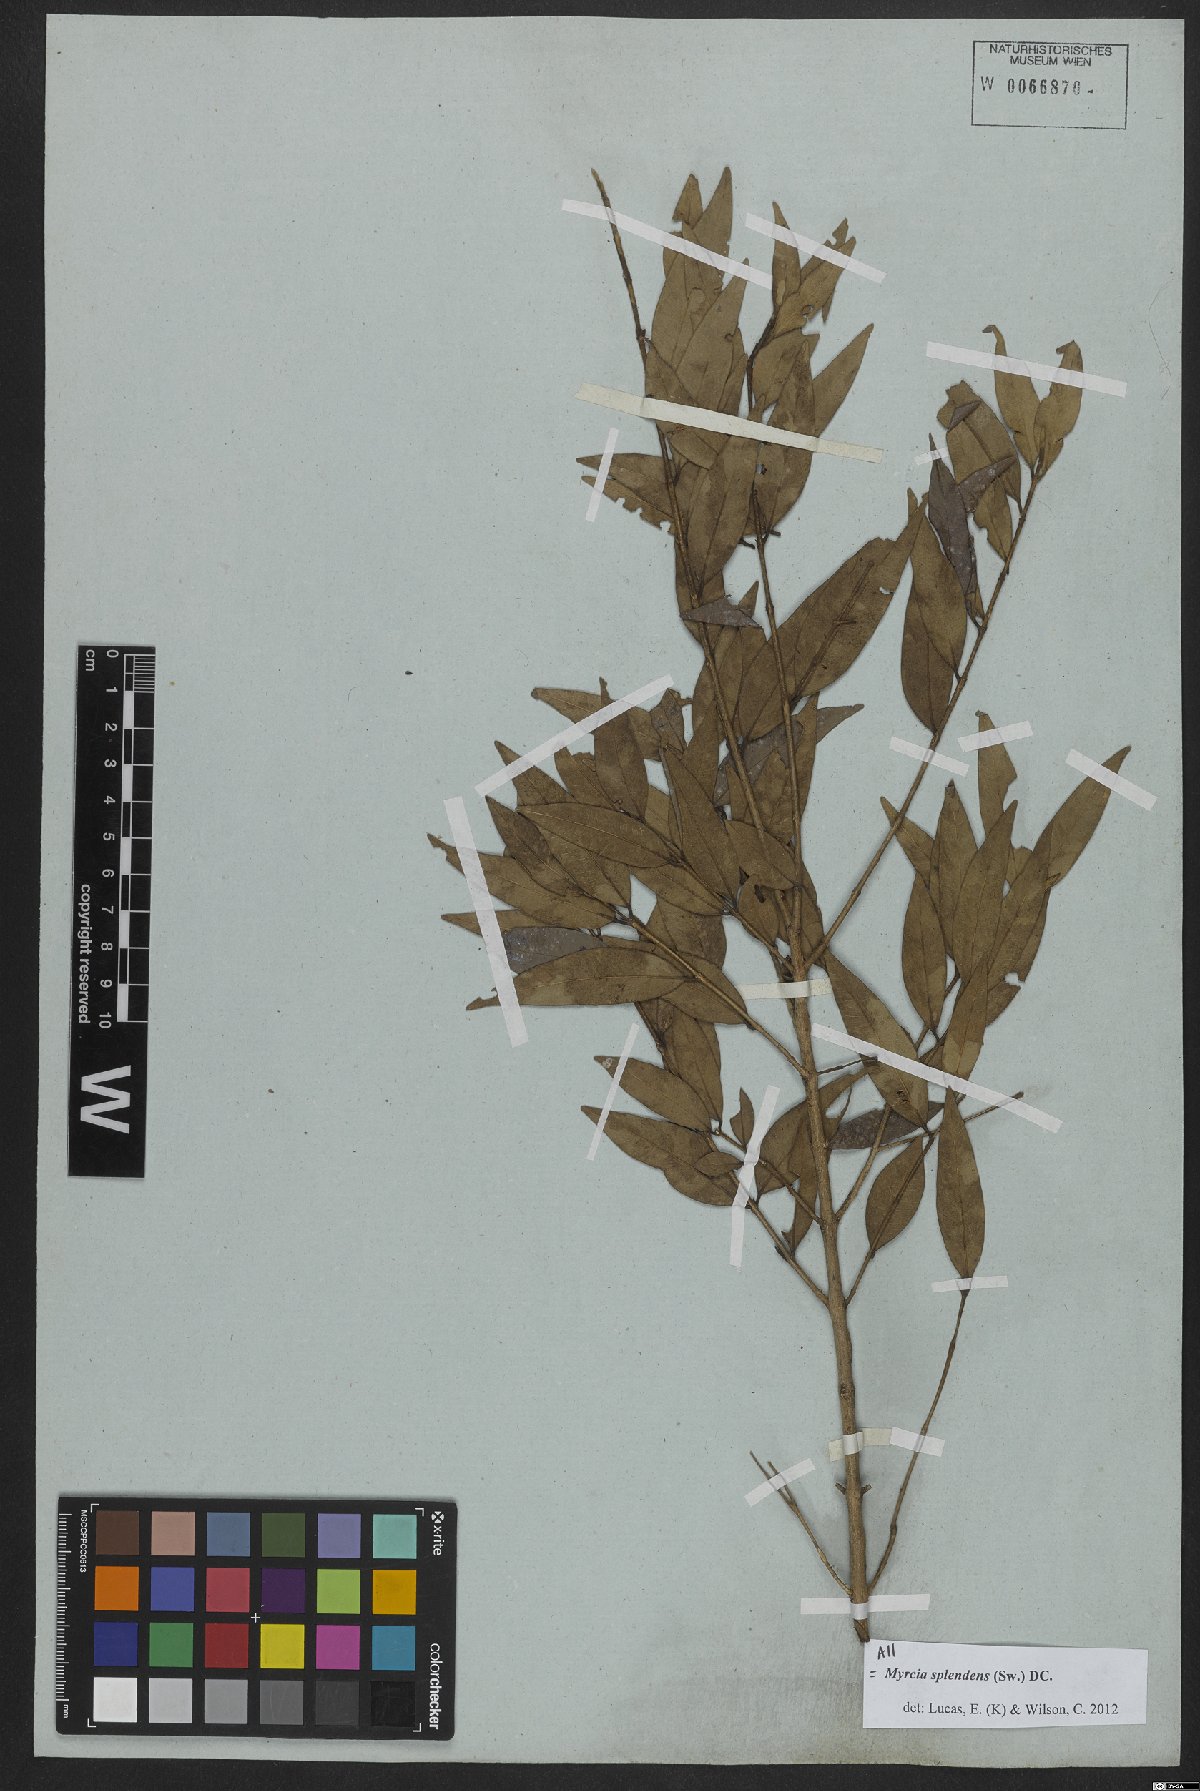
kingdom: Plantae
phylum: Tracheophyta
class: Magnoliopsida
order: Myrtales
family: Myrtaceae
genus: Myrcia
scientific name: Myrcia splendens
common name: Surinam cherry
